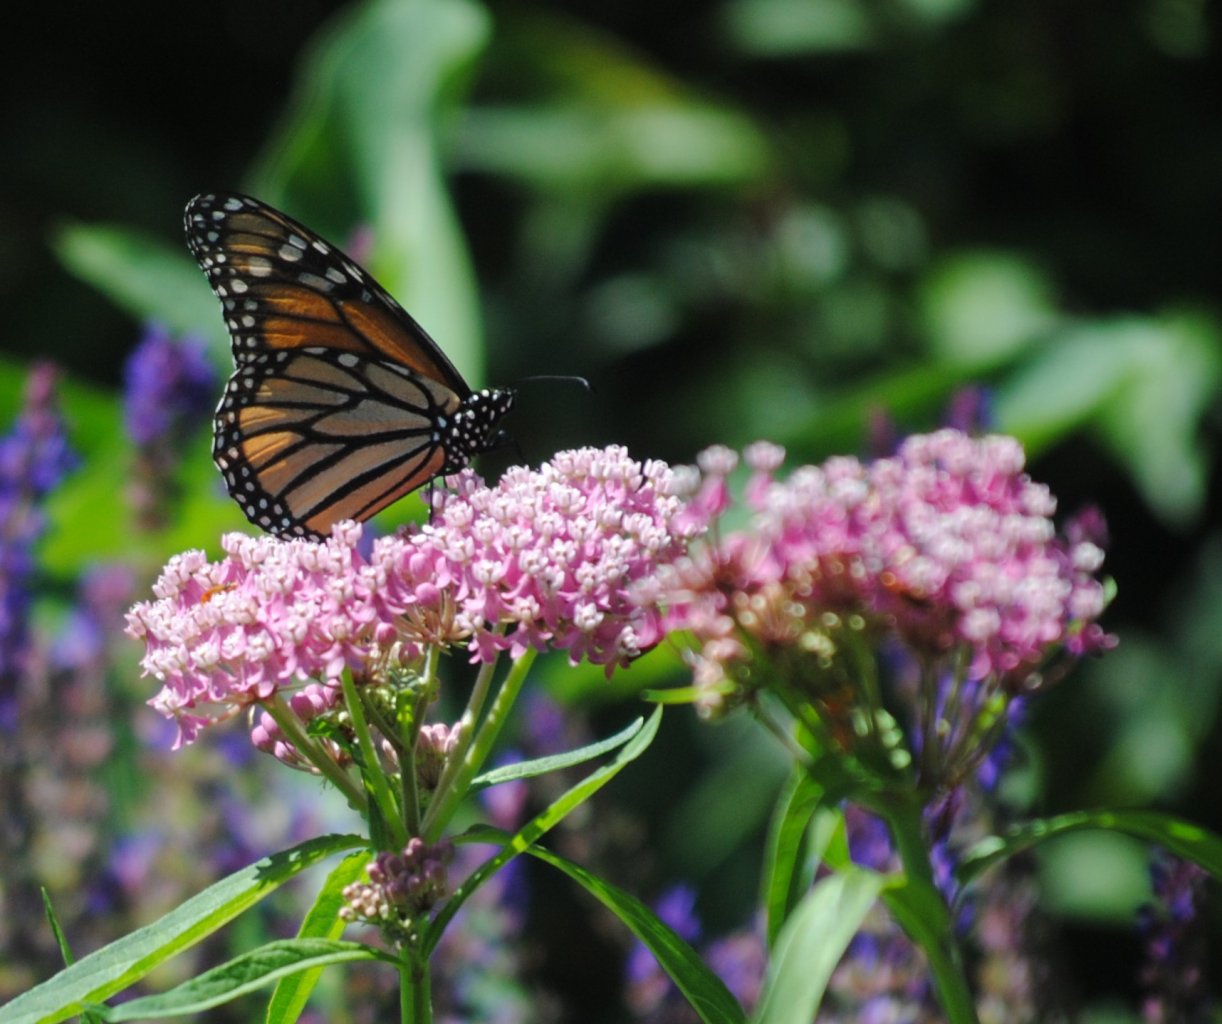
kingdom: Animalia
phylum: Arthropoda
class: Insecta
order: Lepidoptera
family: Nymphalidae
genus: Danaus
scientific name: Danaus plexippus
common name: Monarch
